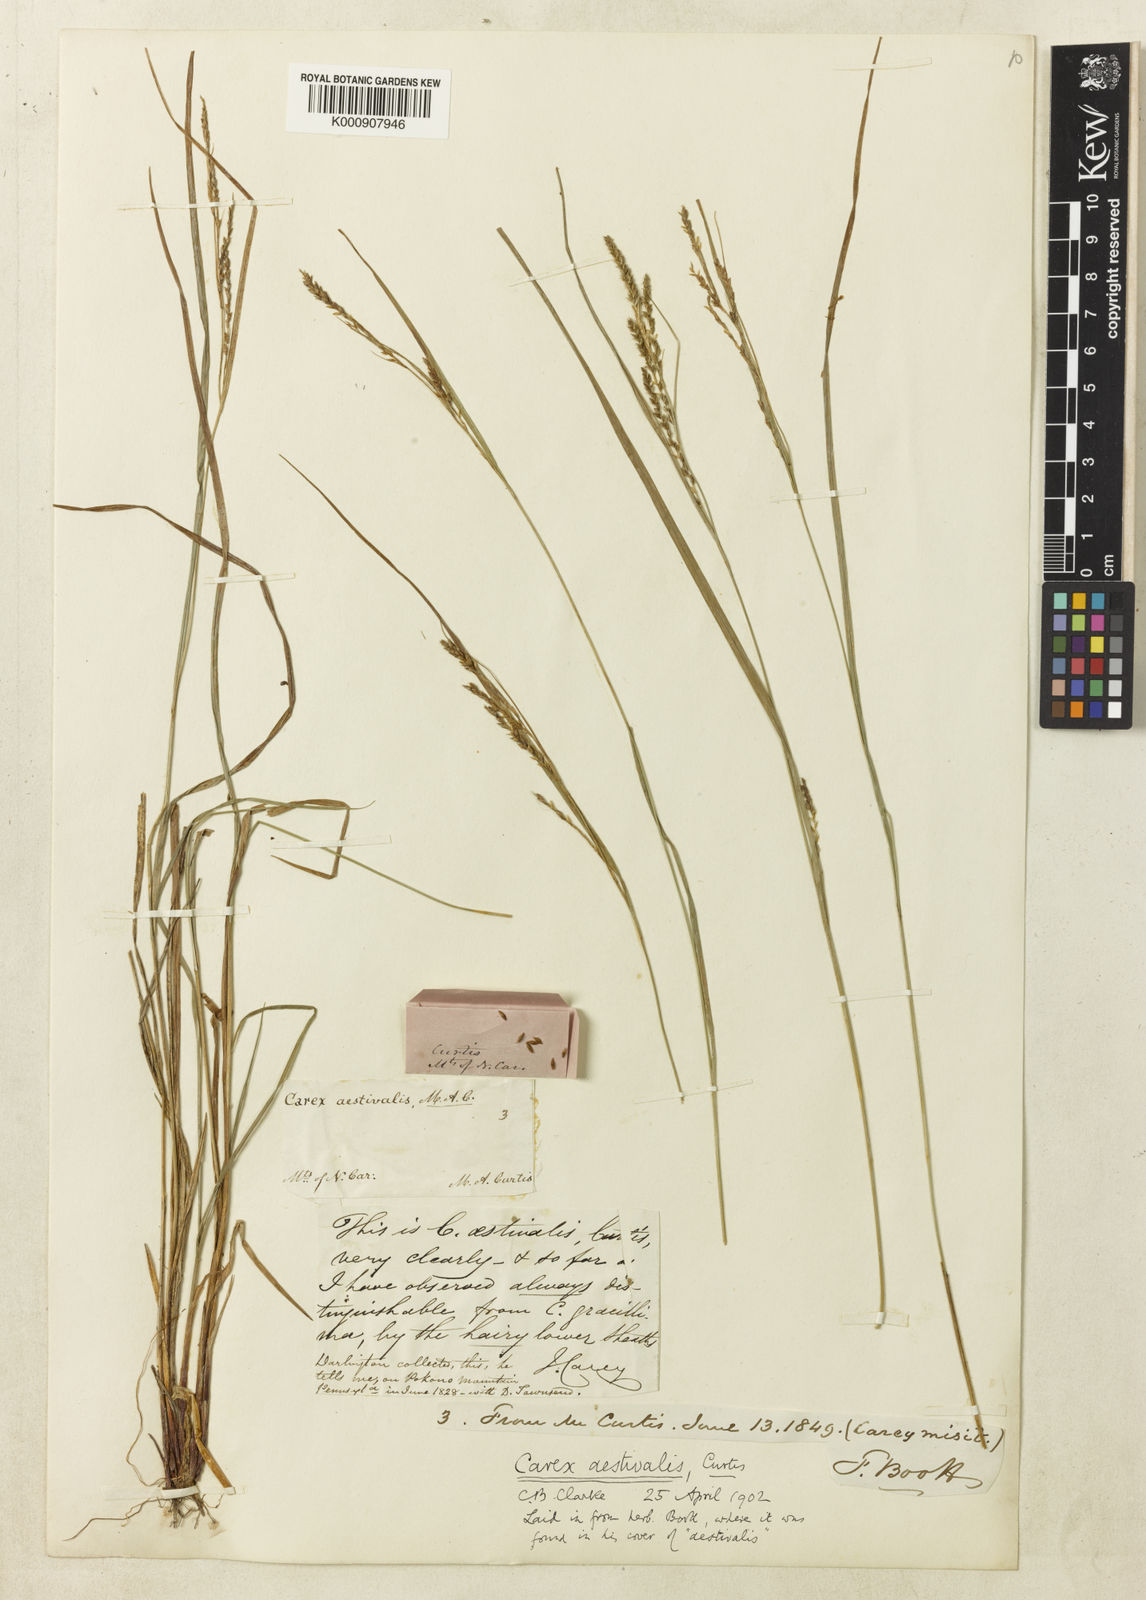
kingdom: Plantae
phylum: Tracheophyta
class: Liliopsida
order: Poales
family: Cyperaceae
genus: Carex
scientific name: Carex aestivalis
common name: Summer sedge
